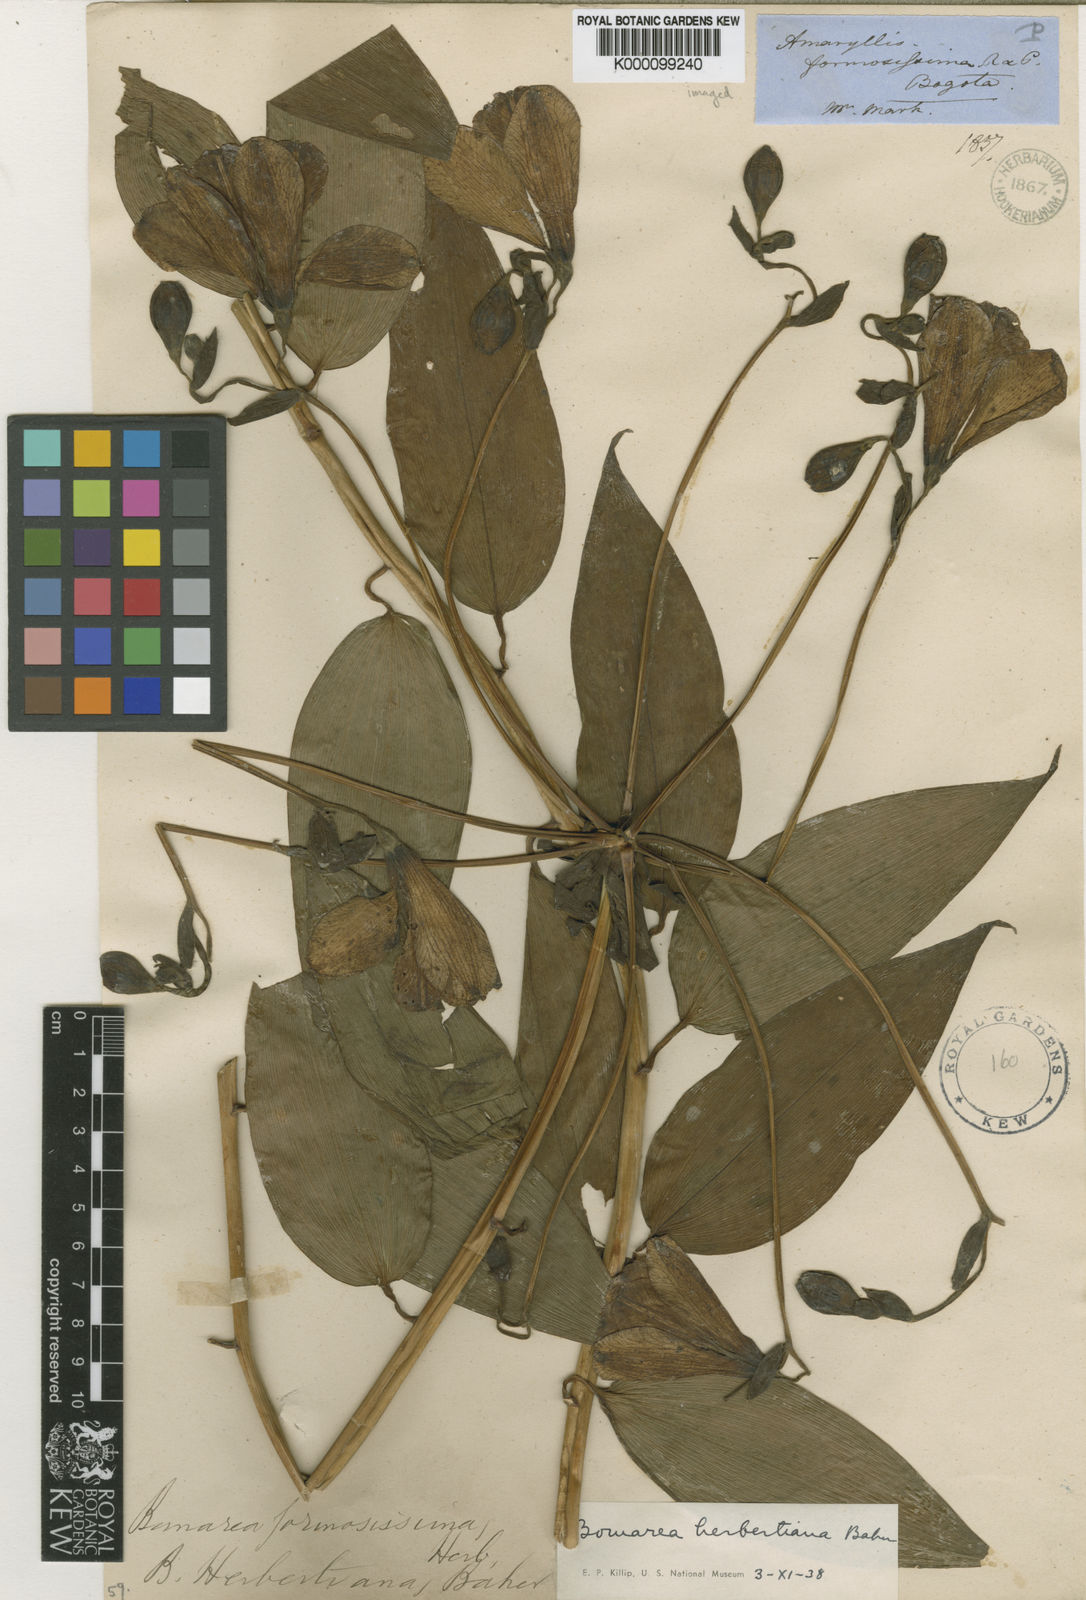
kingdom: Plantae
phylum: Tracheophyta
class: Liliopsida
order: Liliales
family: Alstroemeriaceae
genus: Bomarea
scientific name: Bomarea herbertiana
